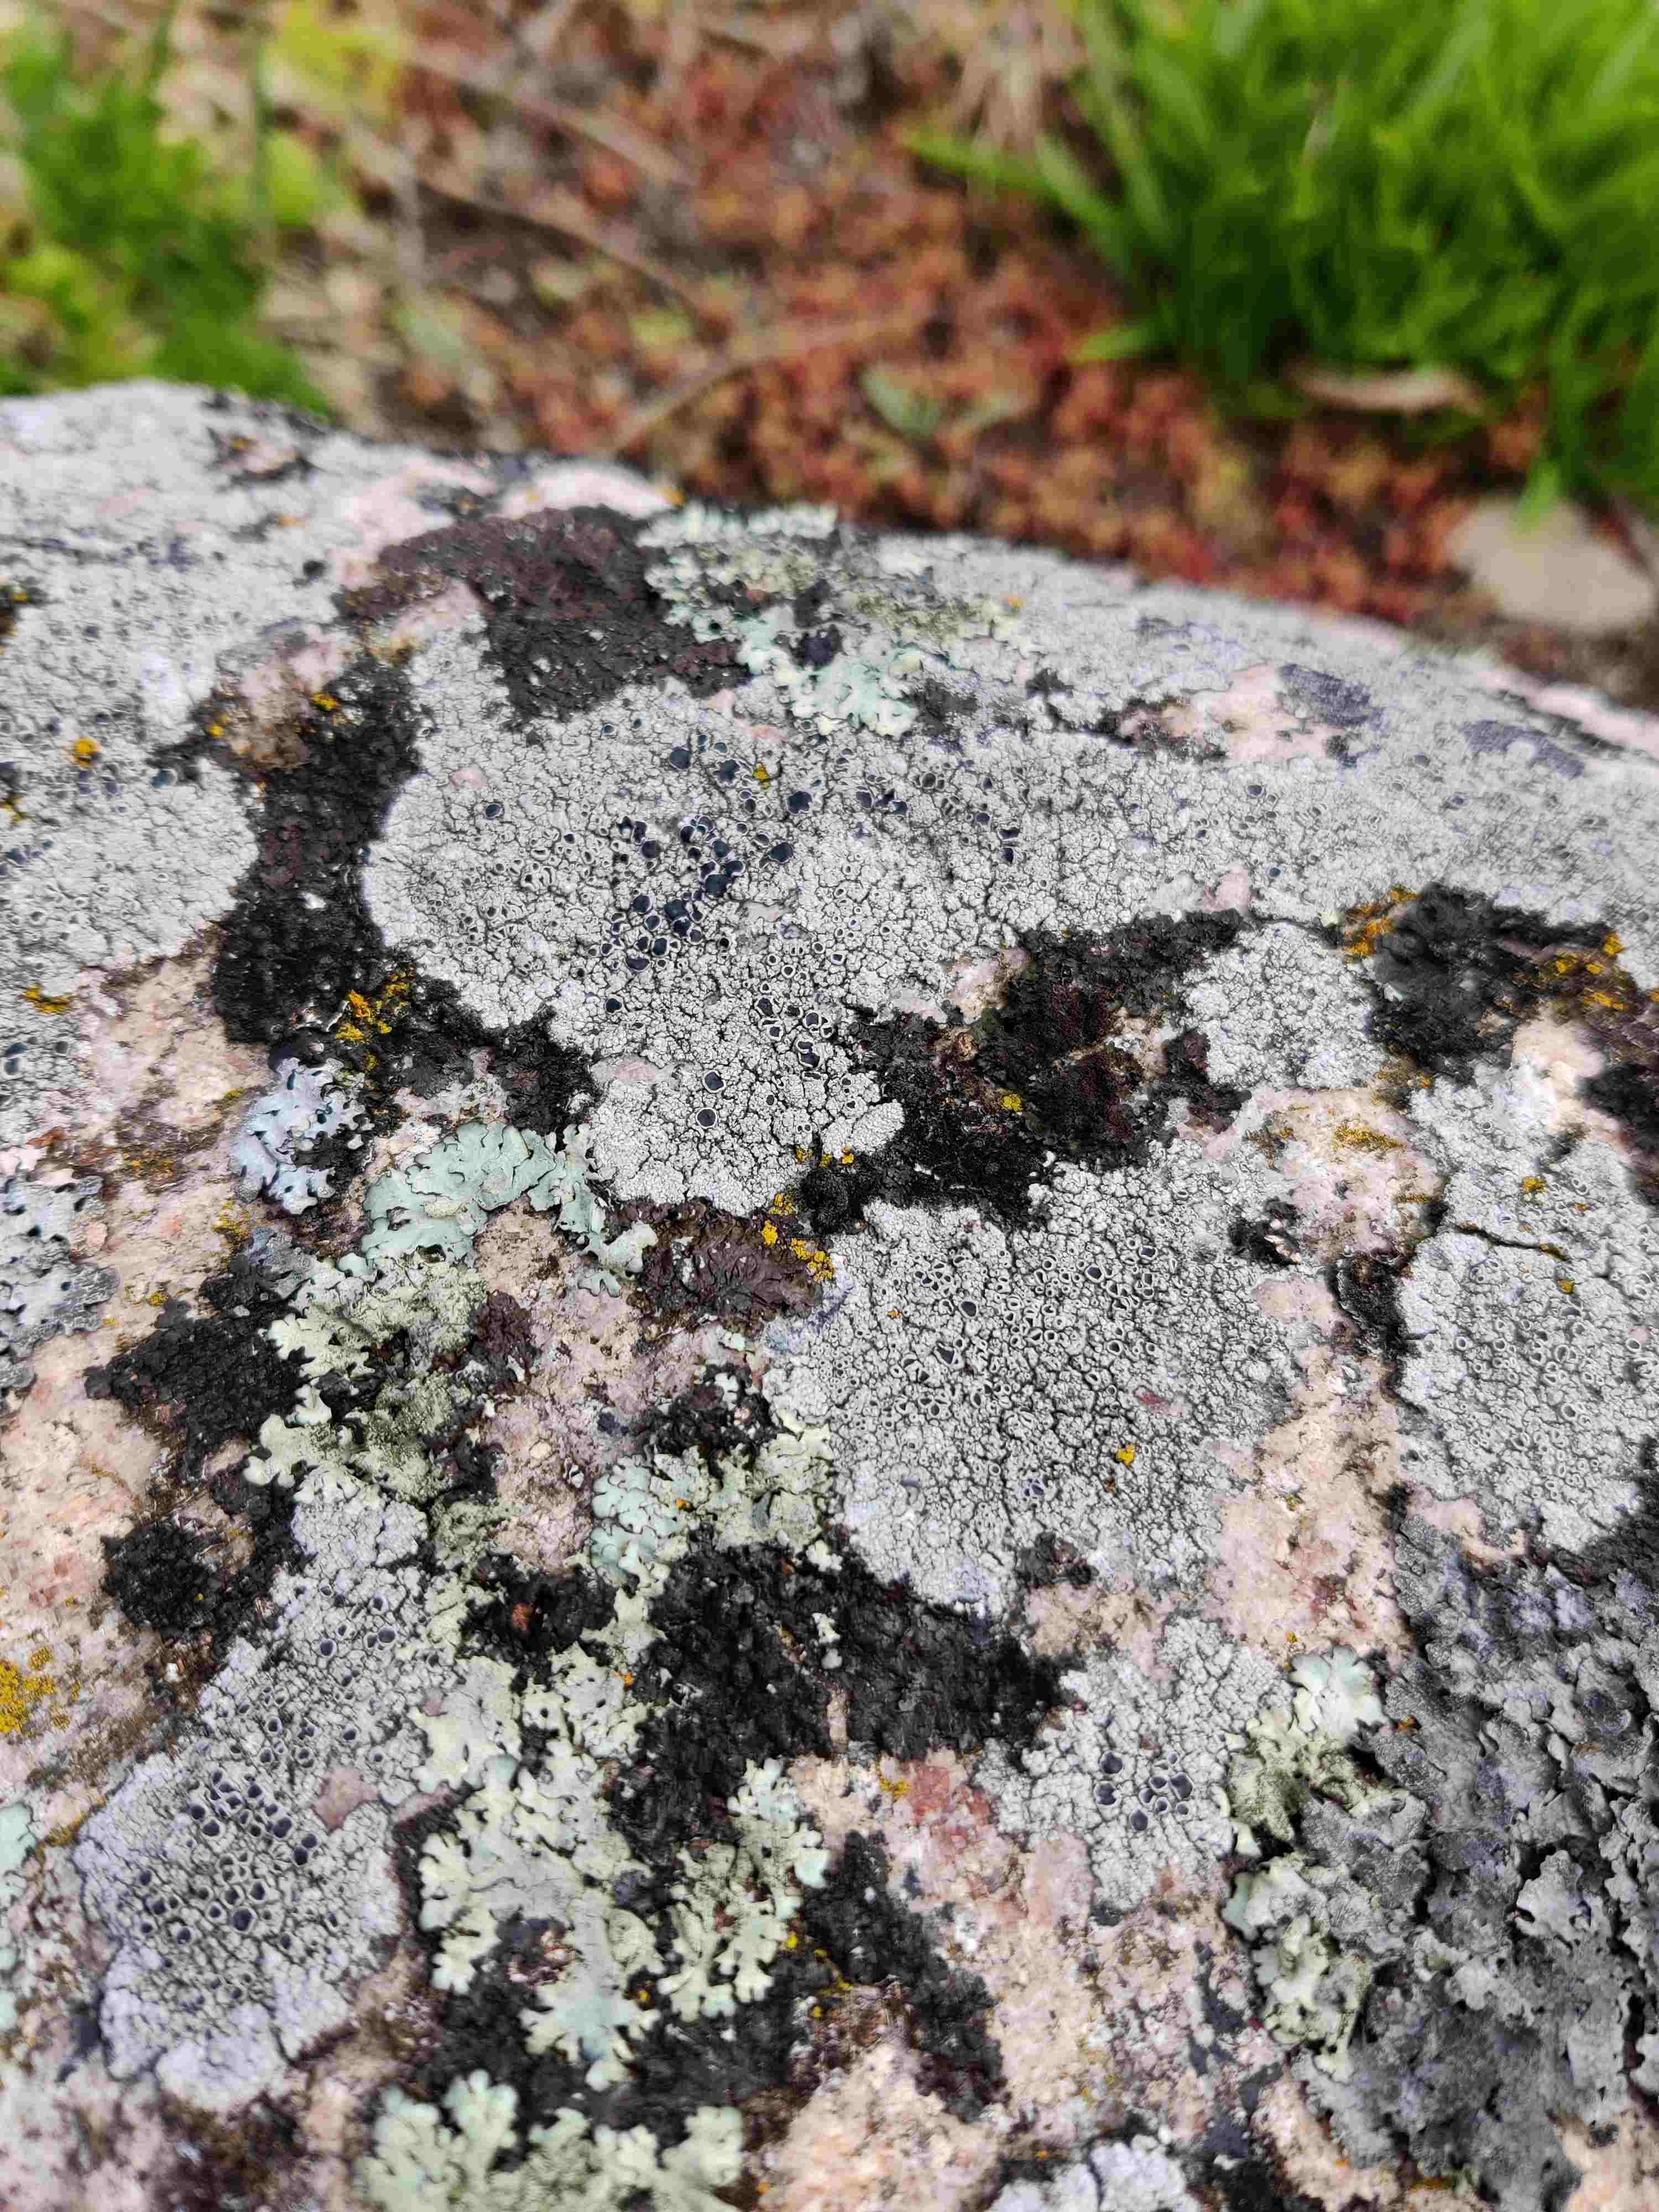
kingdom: Fungi
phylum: Ascomycota
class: Lecanoromycetes
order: Lecanorales
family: Tephromelataceae
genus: Tephromela
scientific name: Tephromela atra
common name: sortfrugtet kantskivelav
